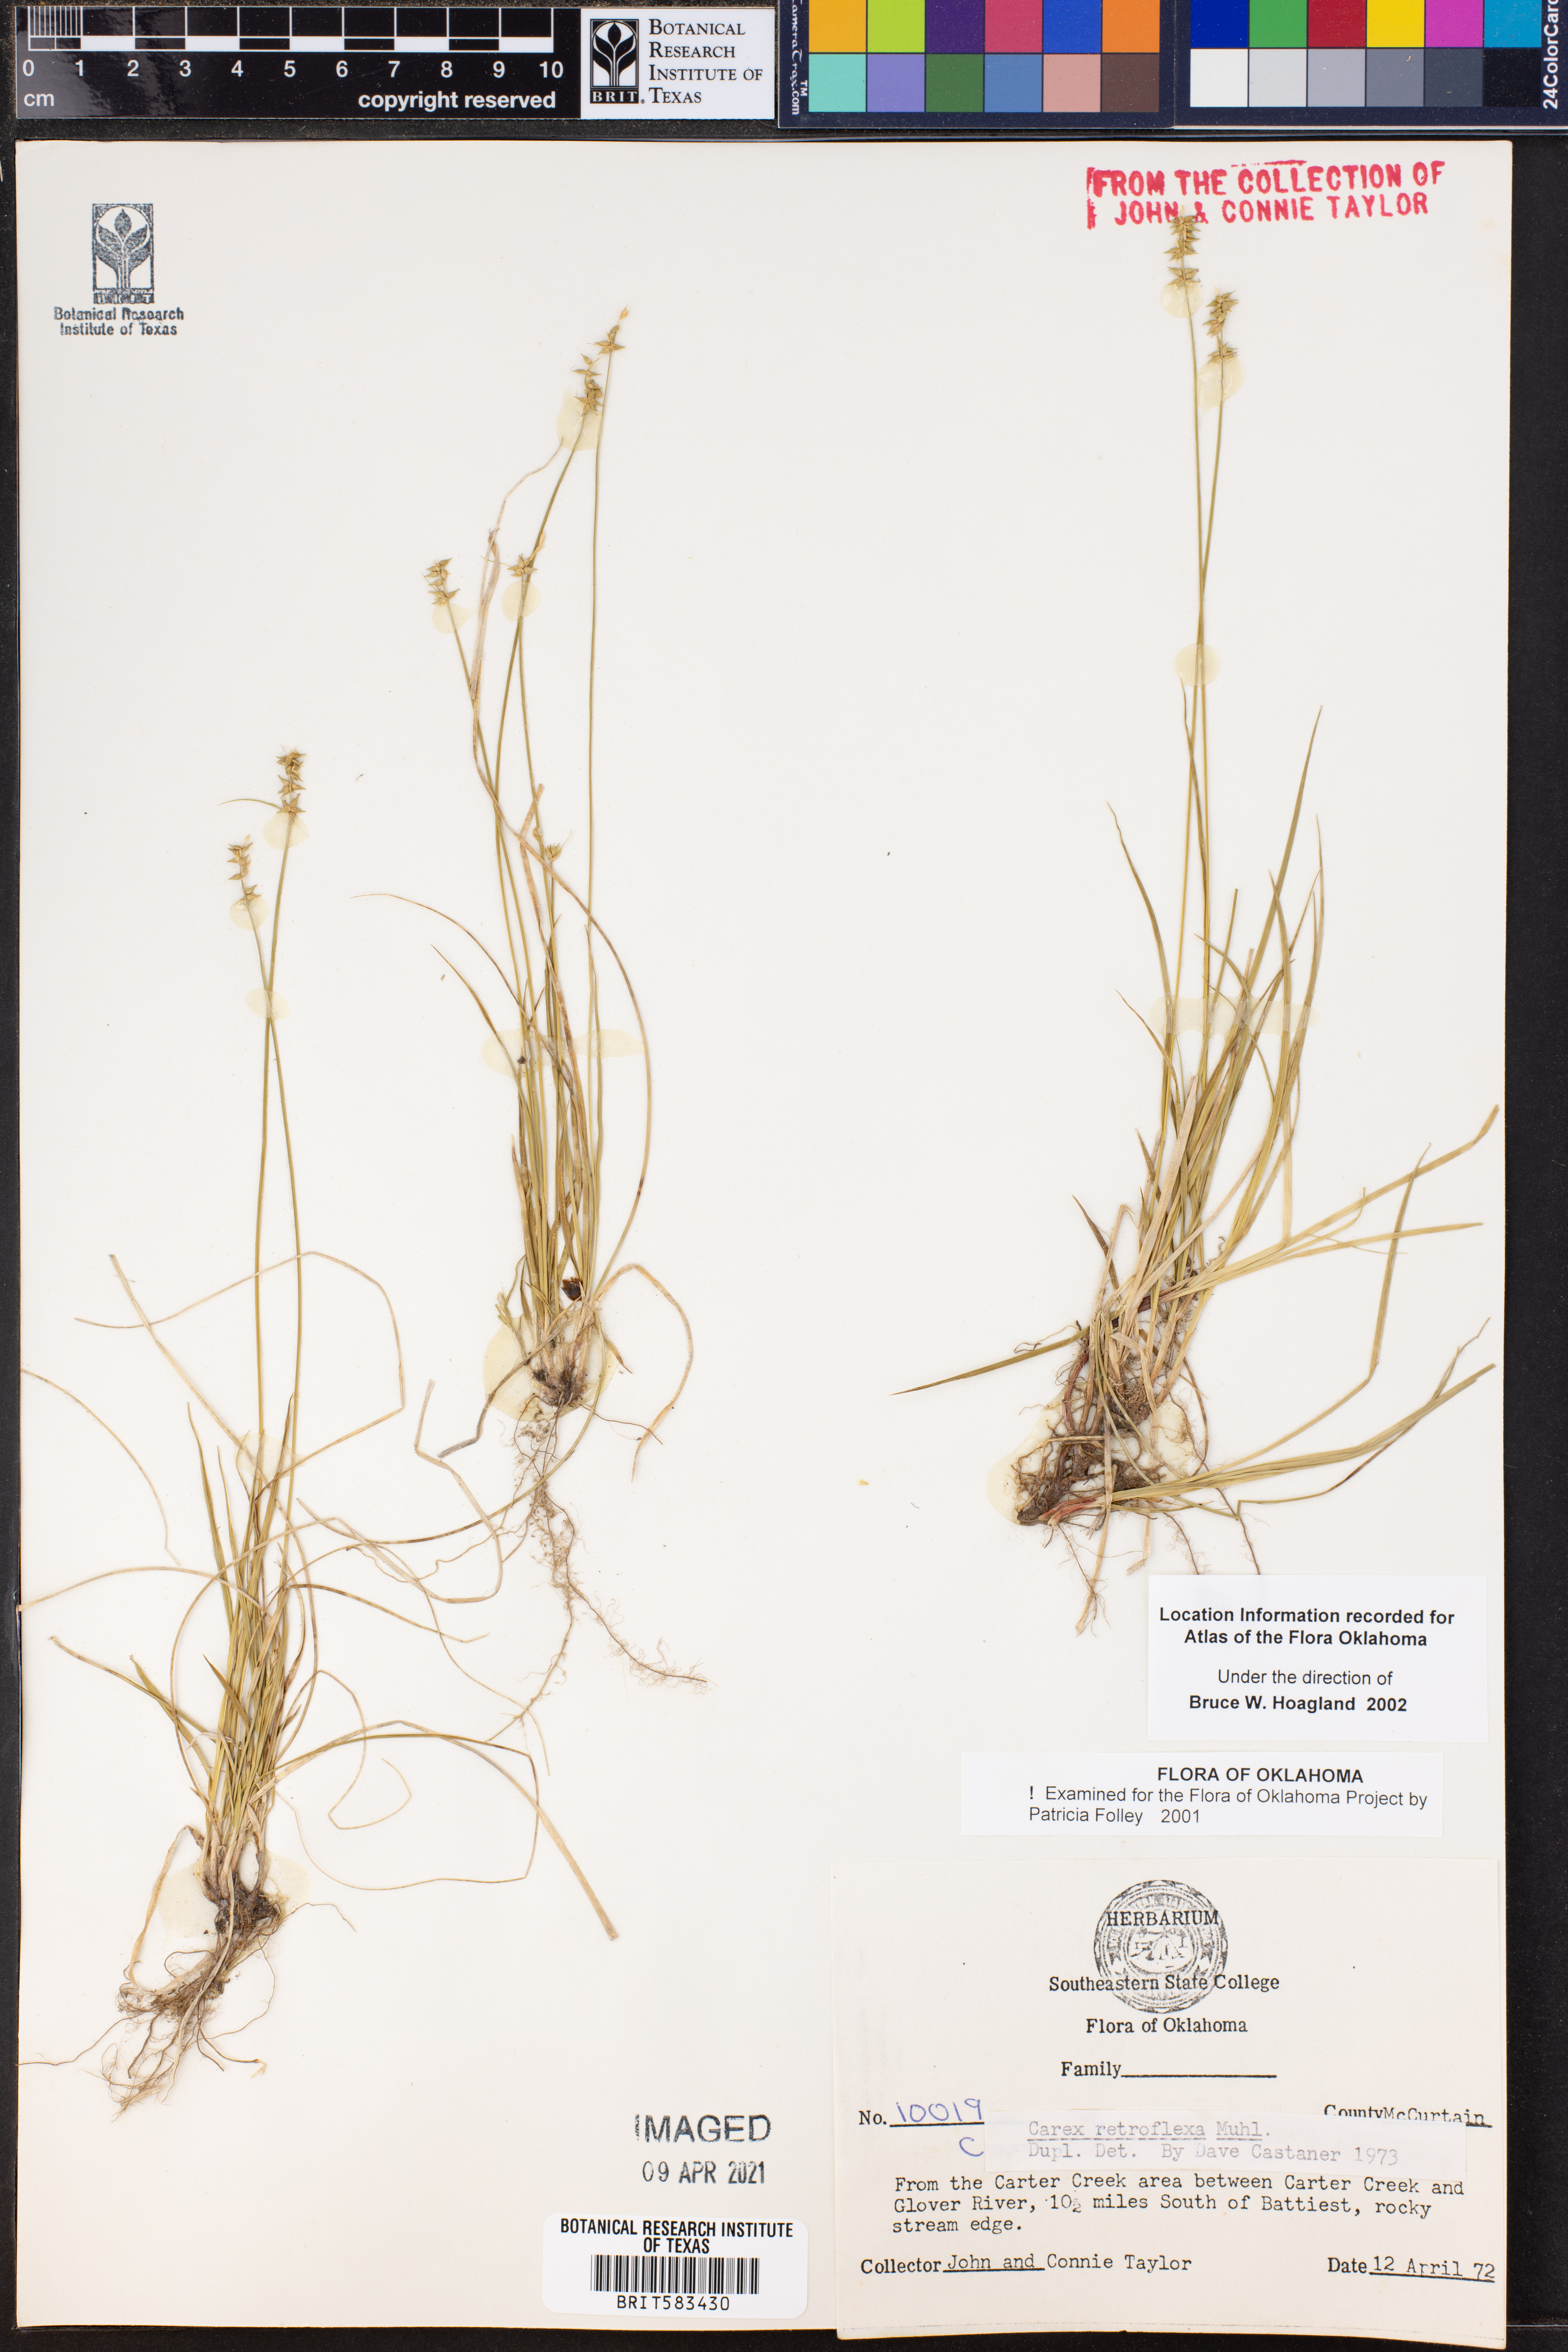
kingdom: Plantae
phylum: Tracheophyta
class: Liliopsida
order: Poales
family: Cyperaceae
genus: Carex
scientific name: Carex retroflexa
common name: Reflexed sedge
